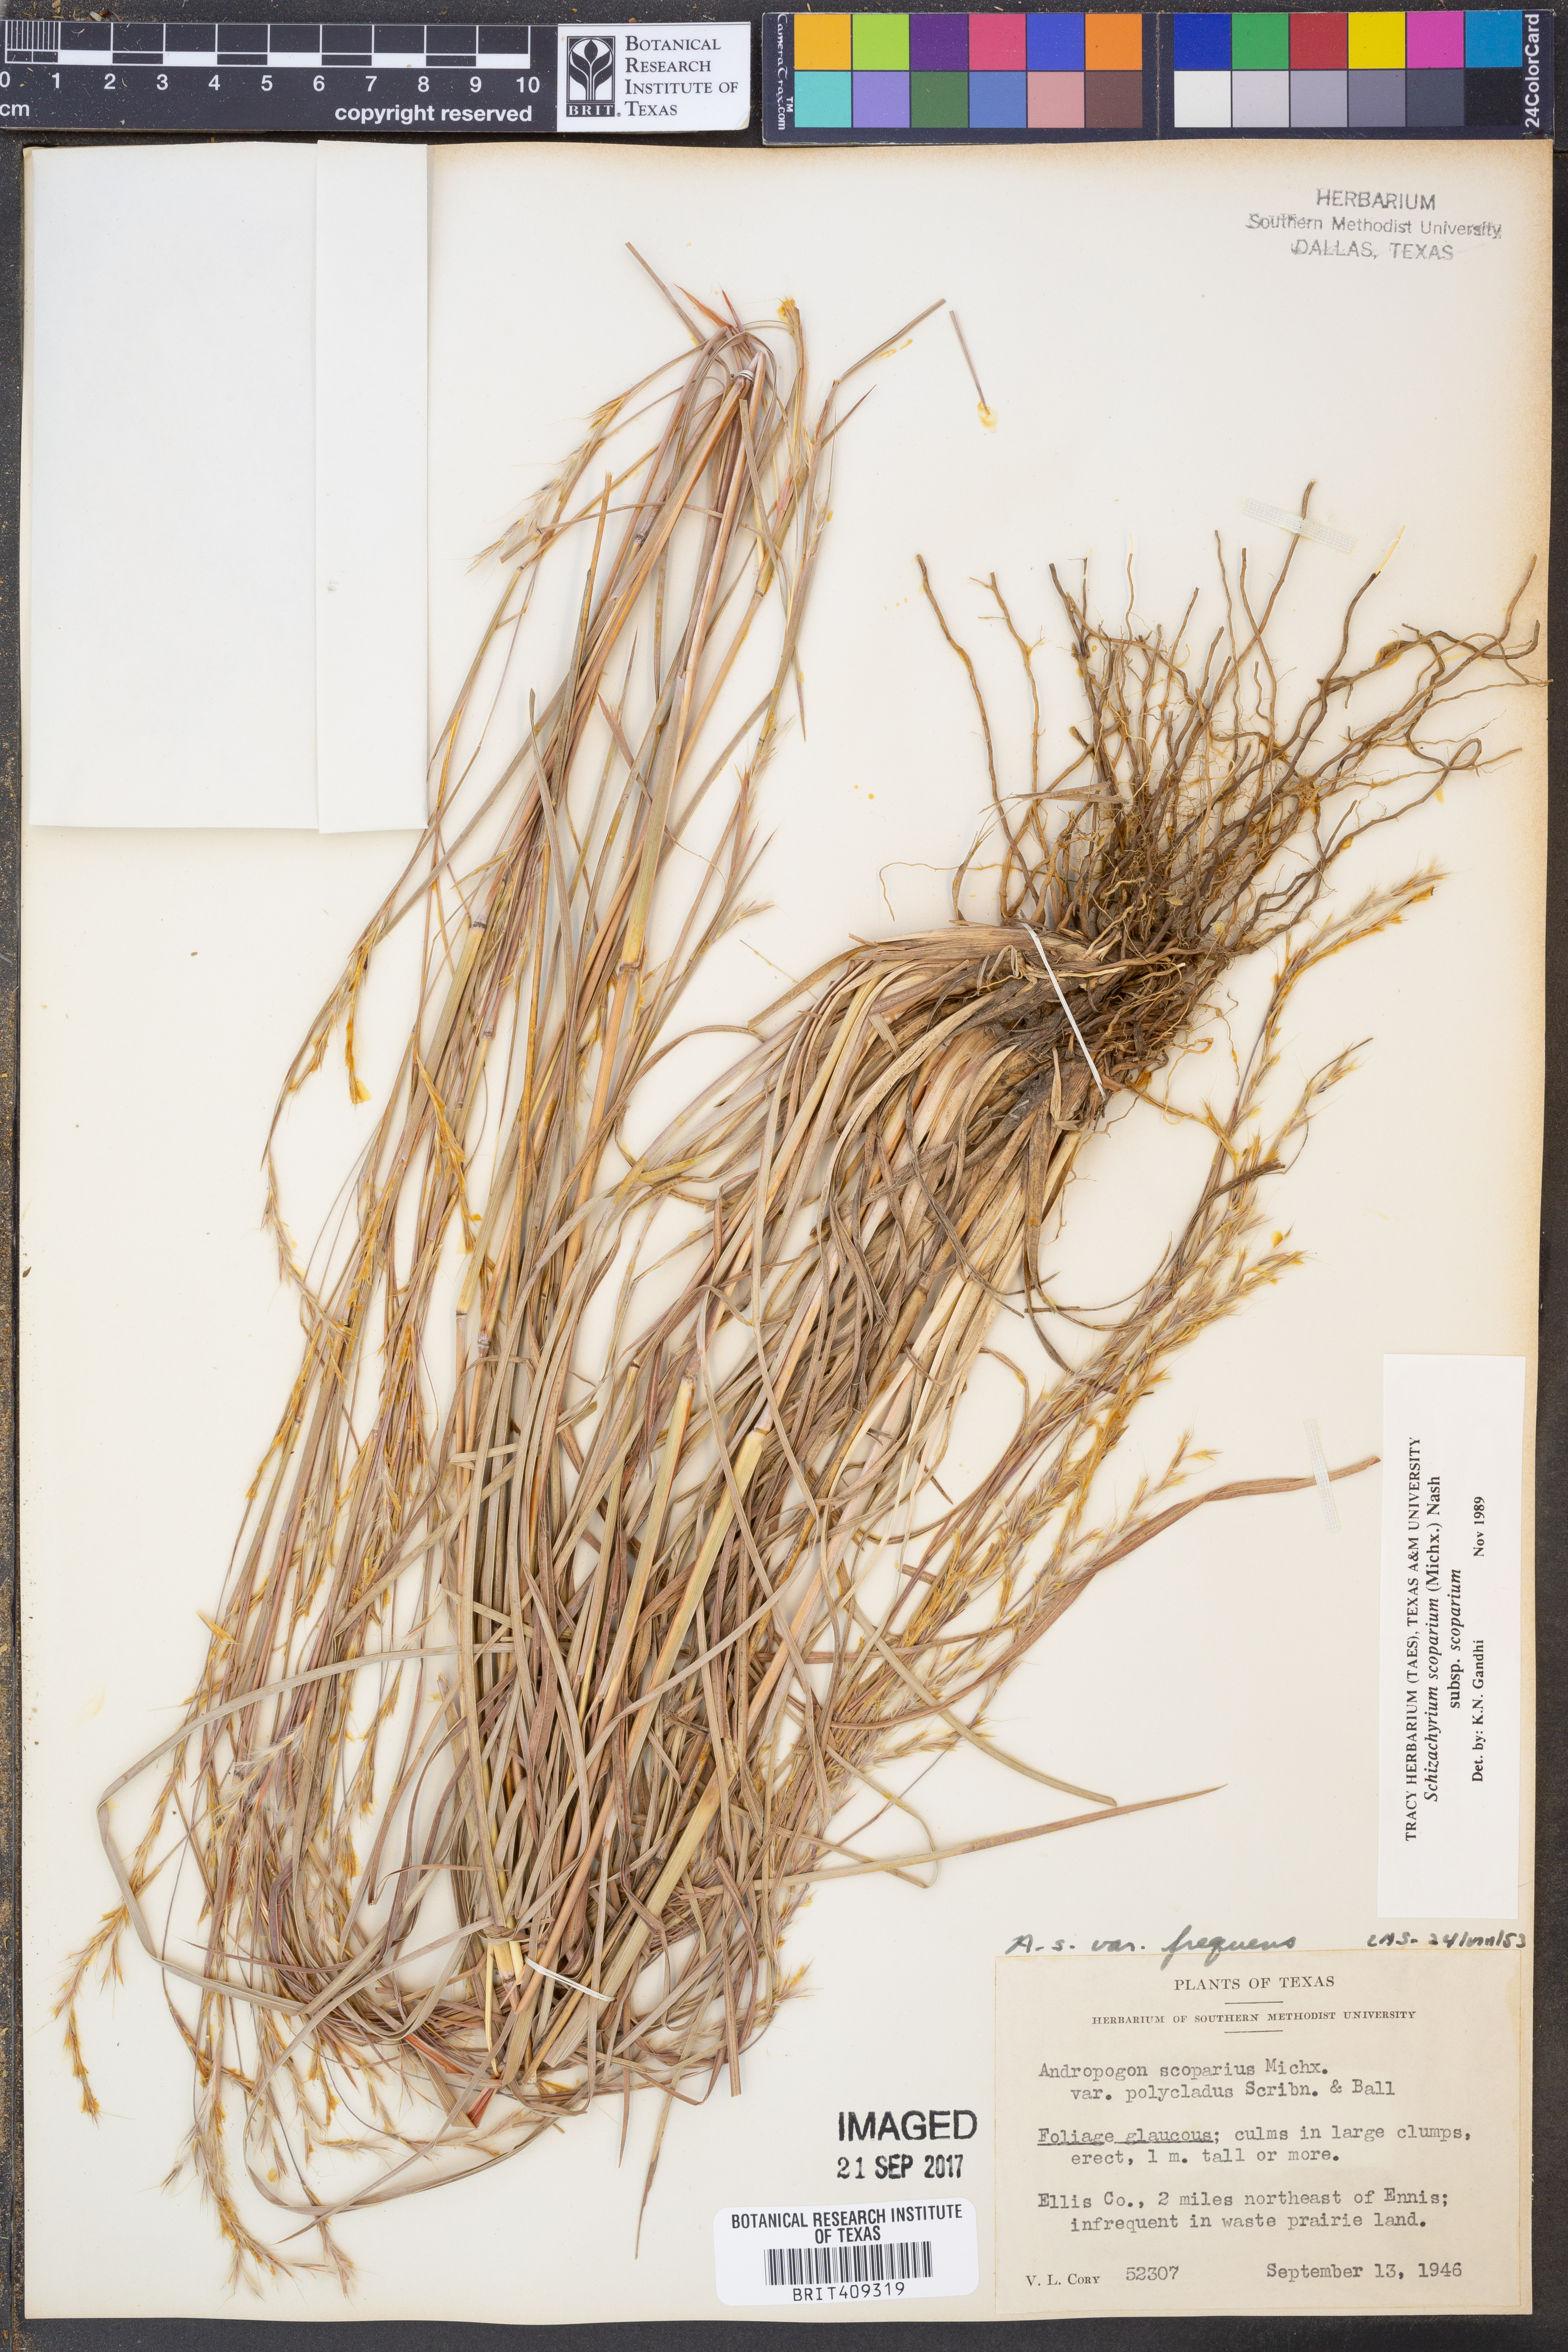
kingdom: Plantae
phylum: Tracheophyta
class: Liliopsida
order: Poales
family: Poaceae
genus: Schizachyrium
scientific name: Schizachyrium scoparium
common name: Little bluestem
